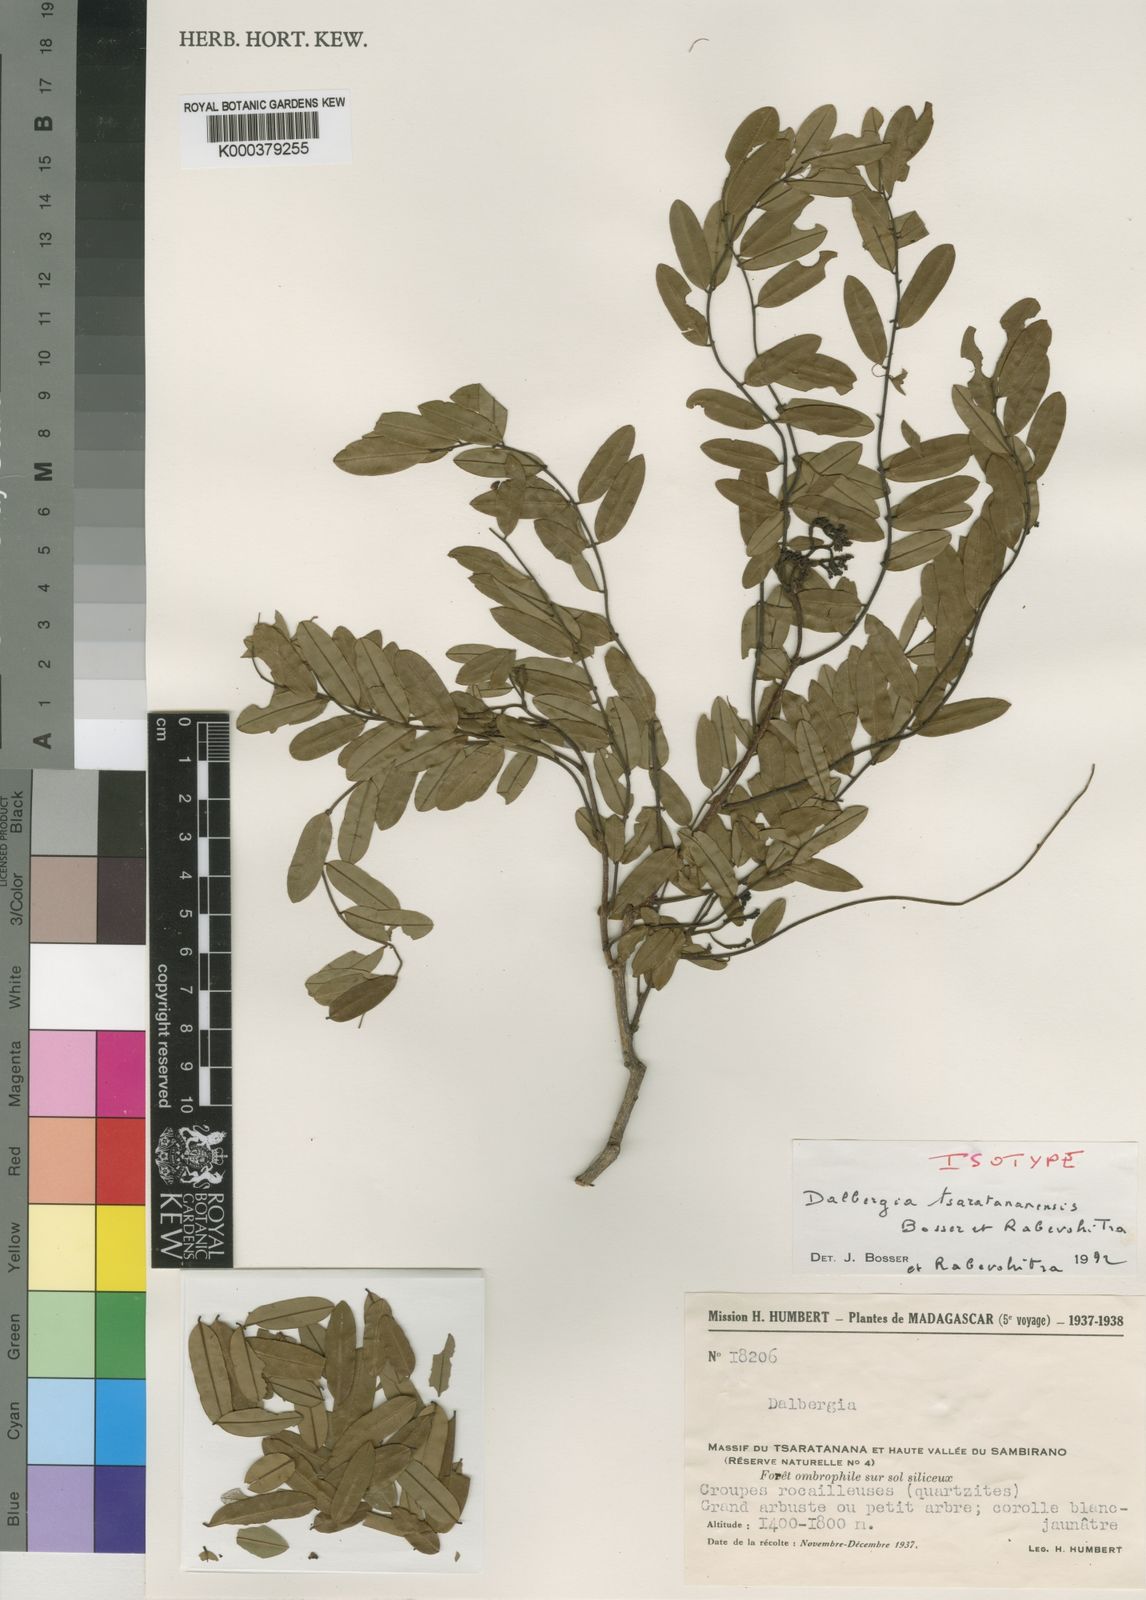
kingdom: Plantae
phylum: Tracheophyta
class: Magnoliopsida
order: Fabales
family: Fabaceae
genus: Dalbergia
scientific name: Dalbergia tsaratananensis
